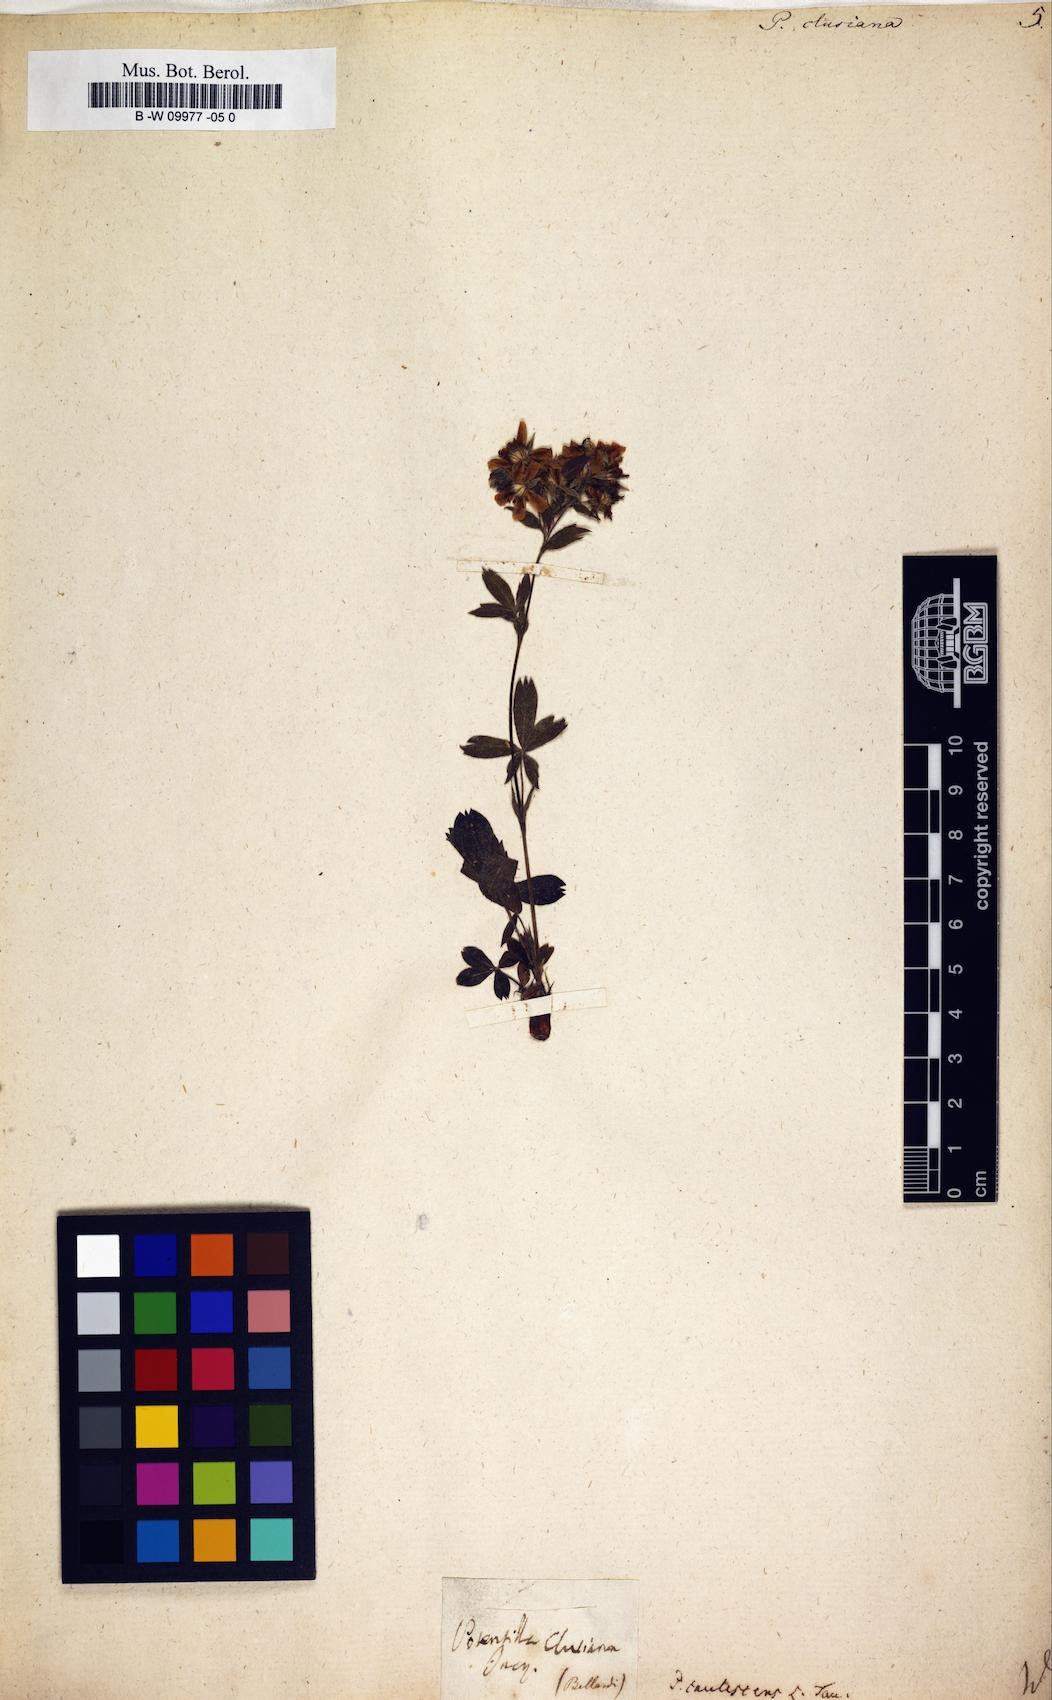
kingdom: Plantae
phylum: Tracheophyta
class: Magnoliopsida
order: Rosales
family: Rosaceae
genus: Potentilla
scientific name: Potentilla clusiana
